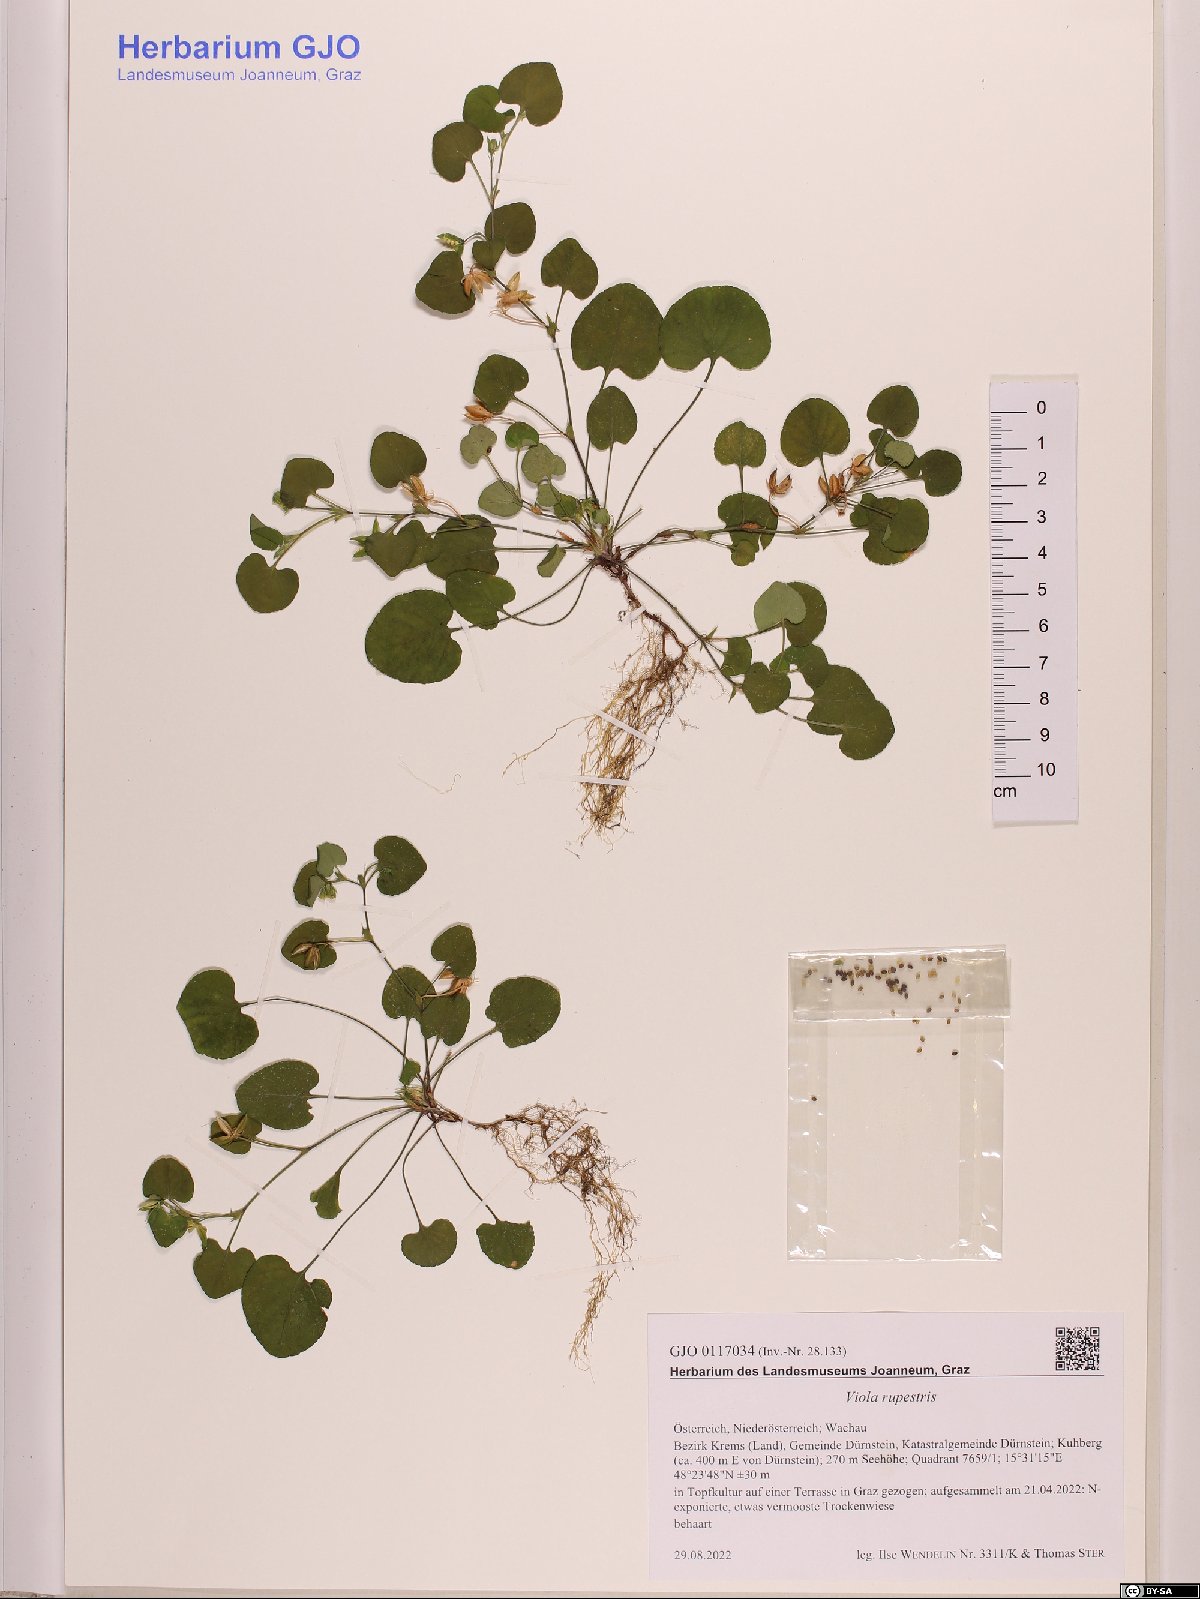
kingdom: Plantae
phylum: Tracheophyta
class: Magnoliopsida
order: Malpighiales
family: Violaceae
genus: Viola
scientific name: Viola rupestris
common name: Teesdale violet
